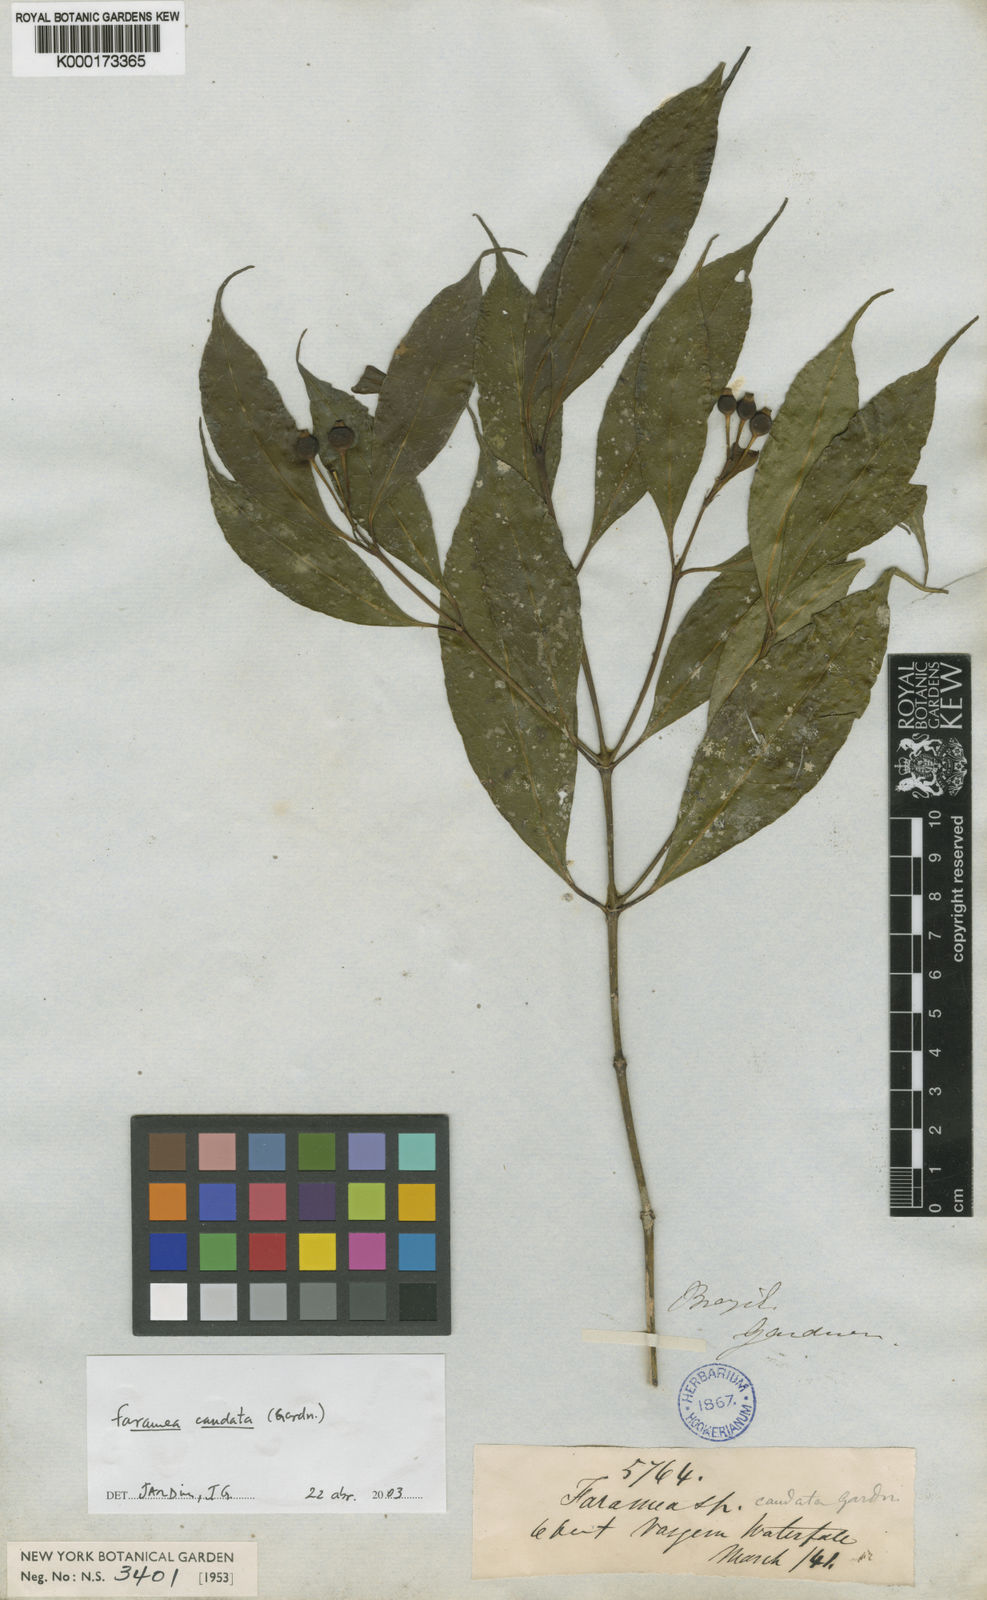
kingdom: Plantae
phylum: Tracheophyta
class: Magnoliopsida
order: Gentianales
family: Rubiaceae
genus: Faramea
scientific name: Faramea caudata
